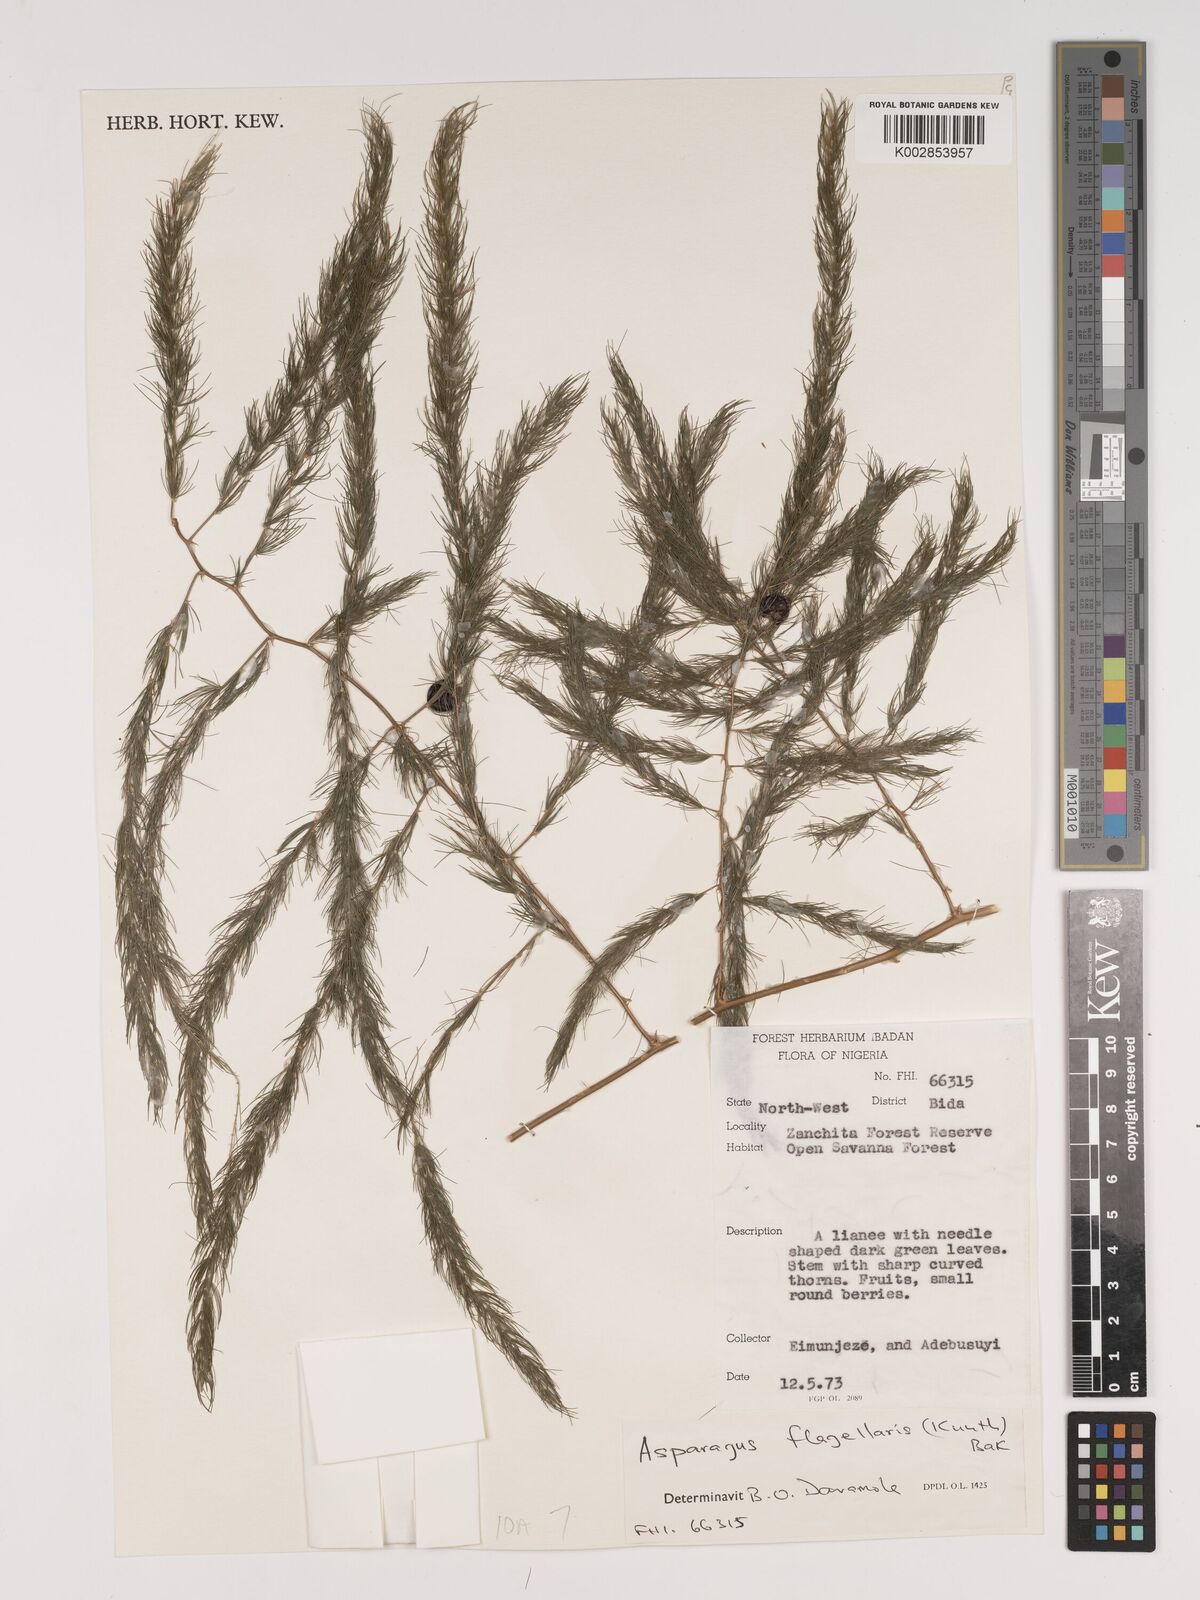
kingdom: Plantae
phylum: Tracheophyta
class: Liliopsida
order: Asparagales
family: Asparagaceae
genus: Asparagus
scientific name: Asparagus flagellaris
